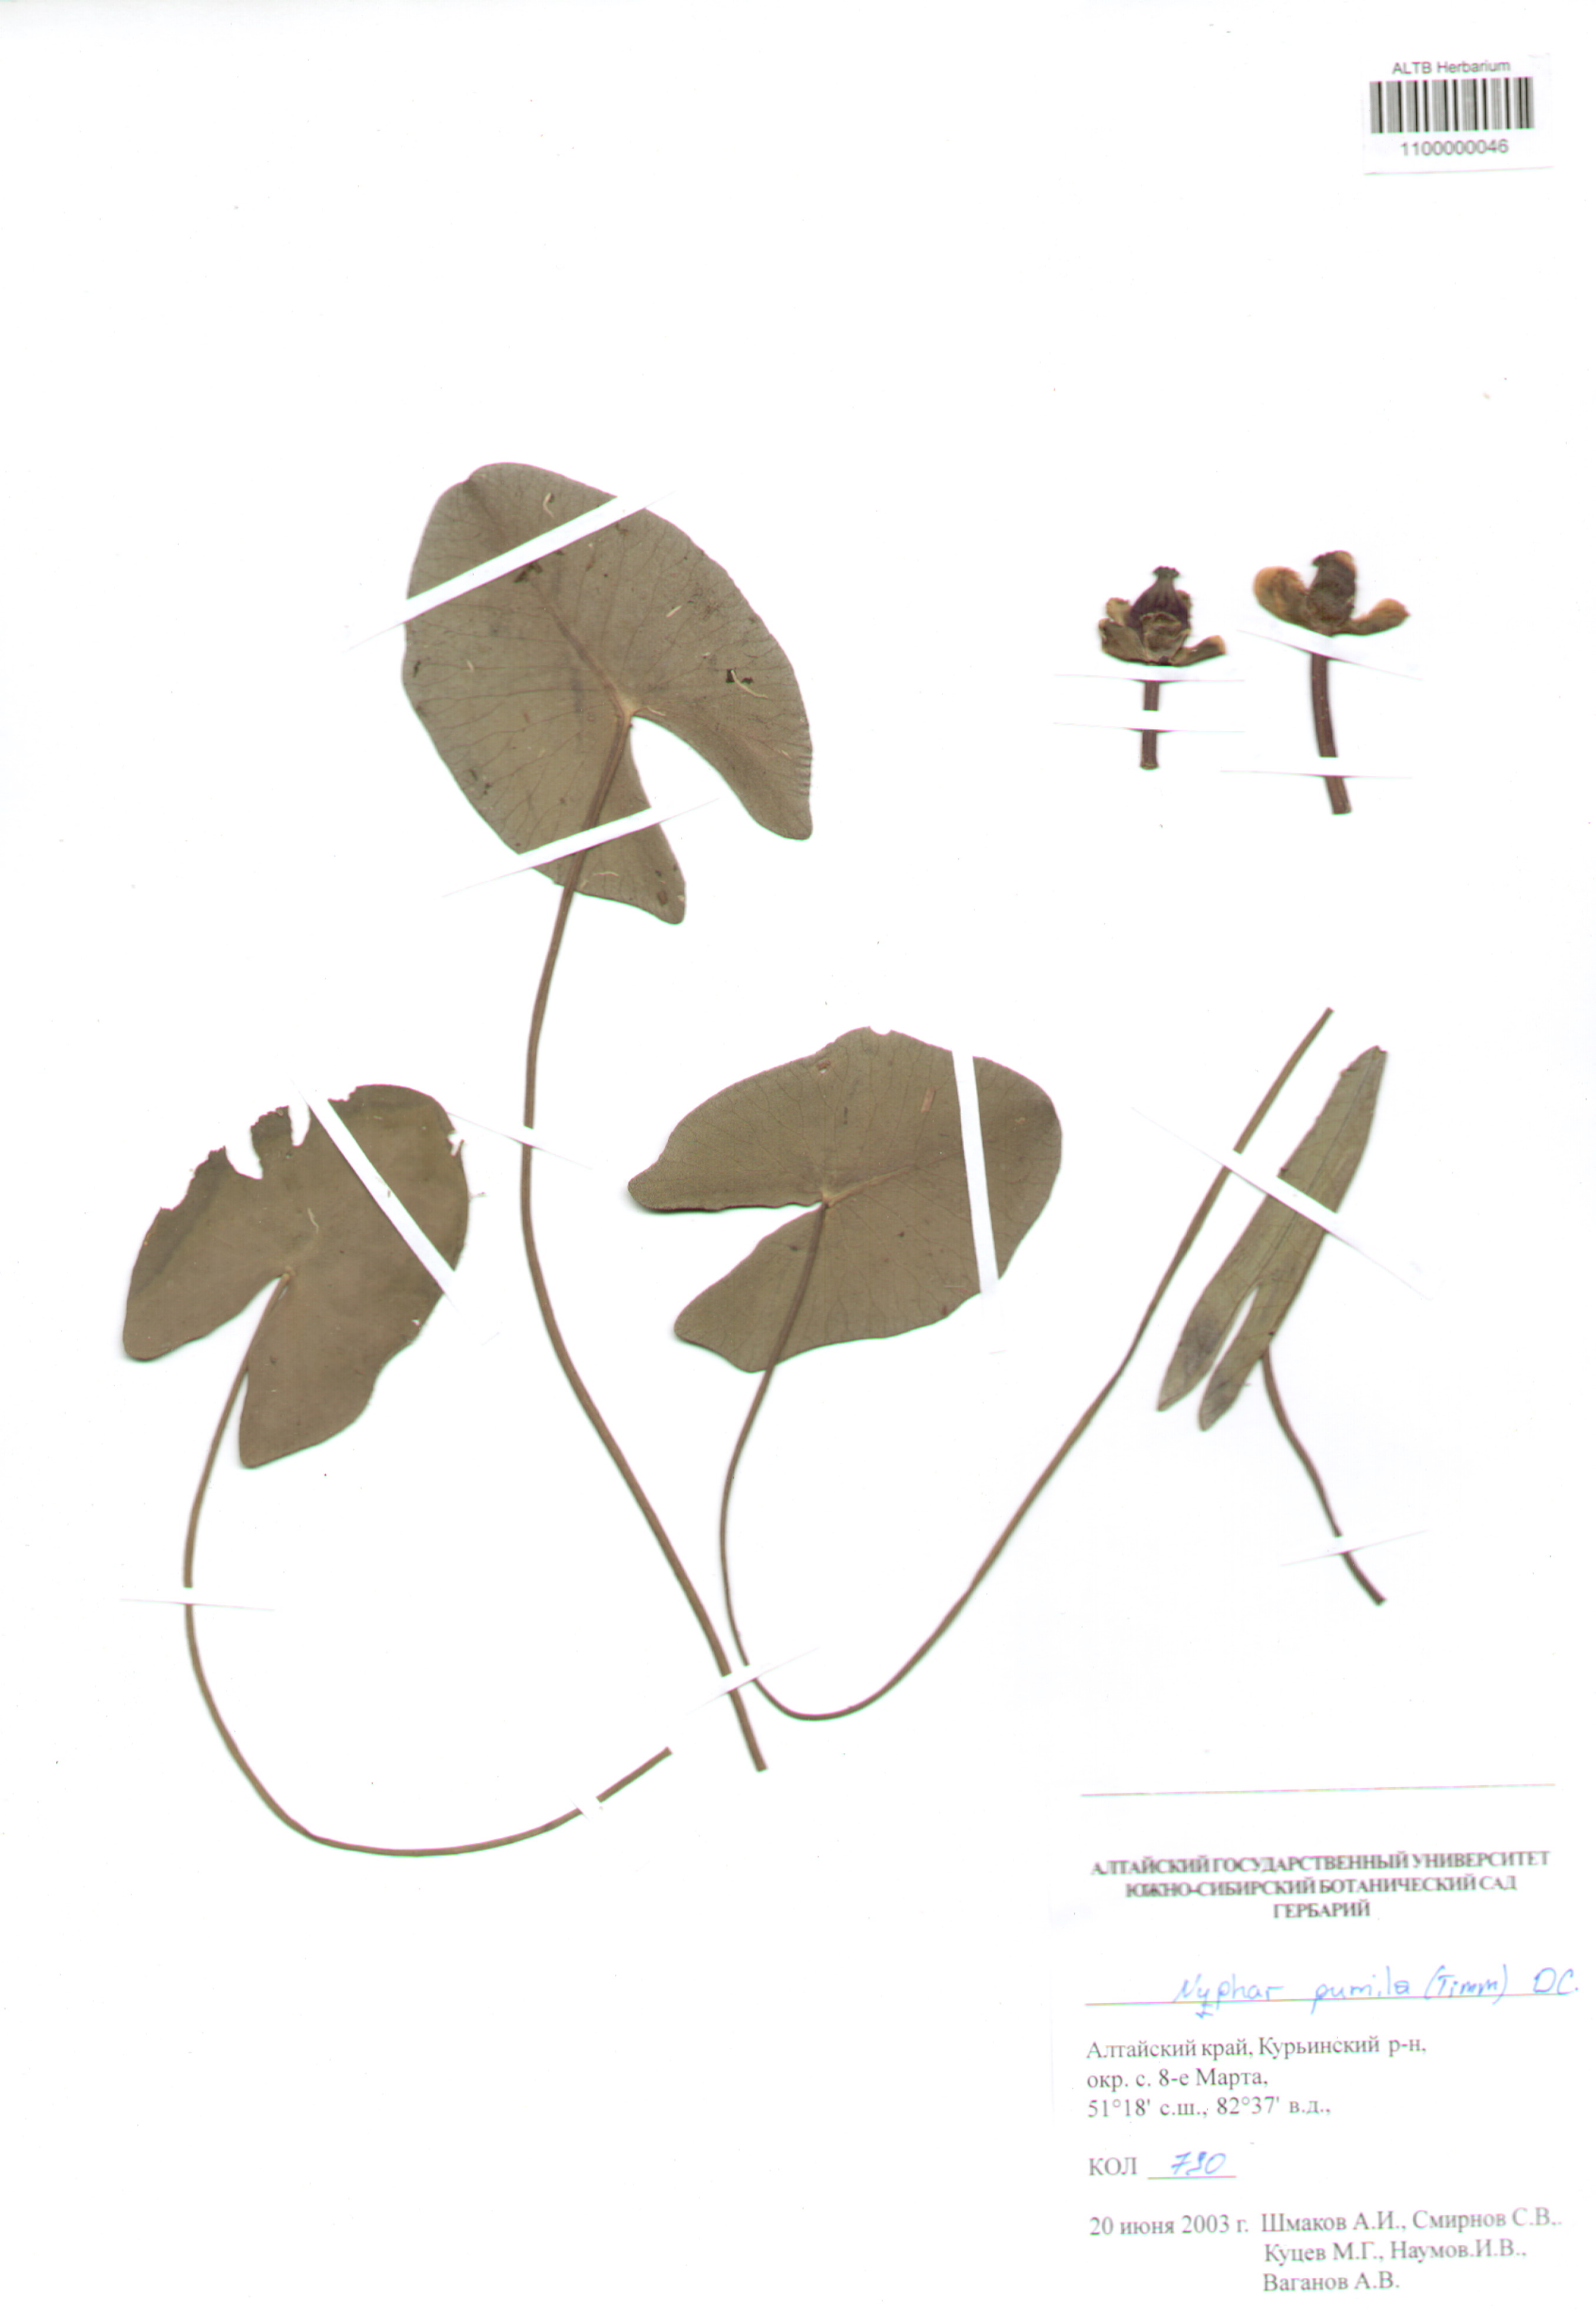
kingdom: Plantae
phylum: Tracheophyta
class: Magnoliopsida
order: Nymphaeales
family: Nymphaeaceae
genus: Nuphar
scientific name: Nuphar pumila
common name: Least water-lily
